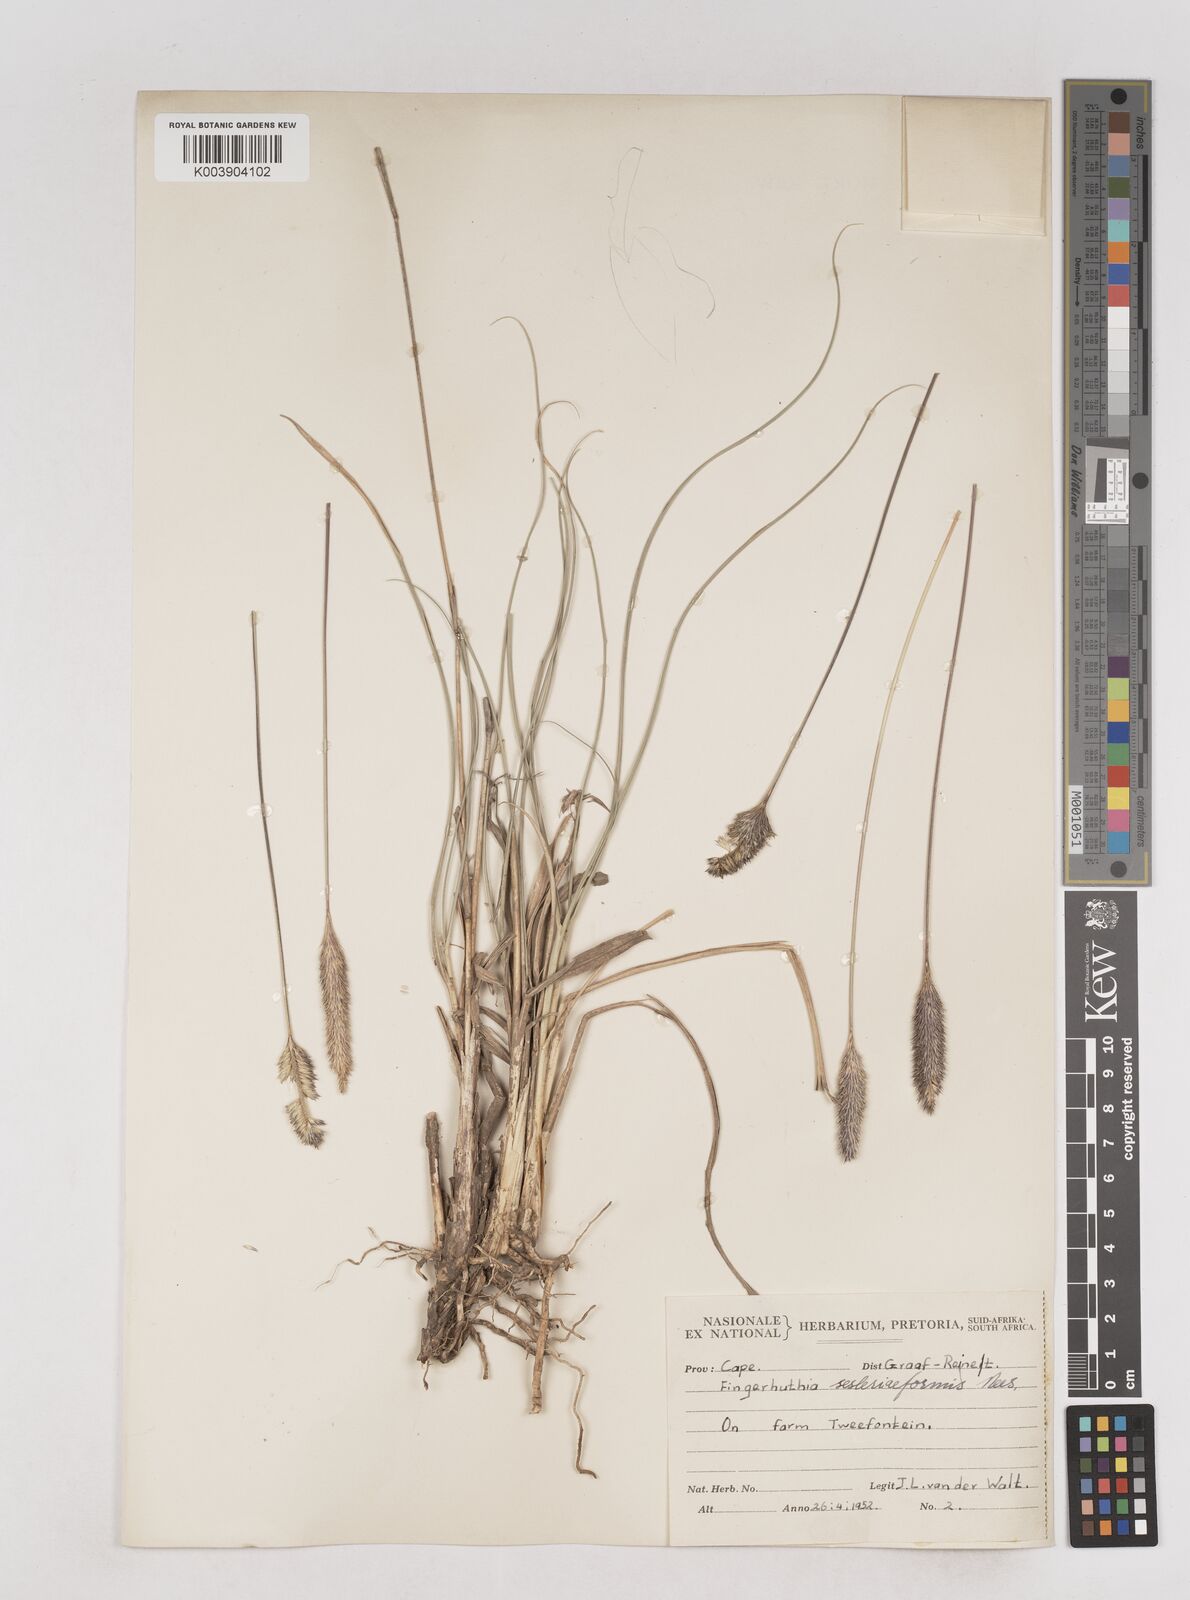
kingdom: Plantae
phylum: Tracheophyta
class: Liliopsida
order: Poales
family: Poaceae
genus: Fingerhuthia
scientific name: Fingerhuthia africana
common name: Zulu fescue
